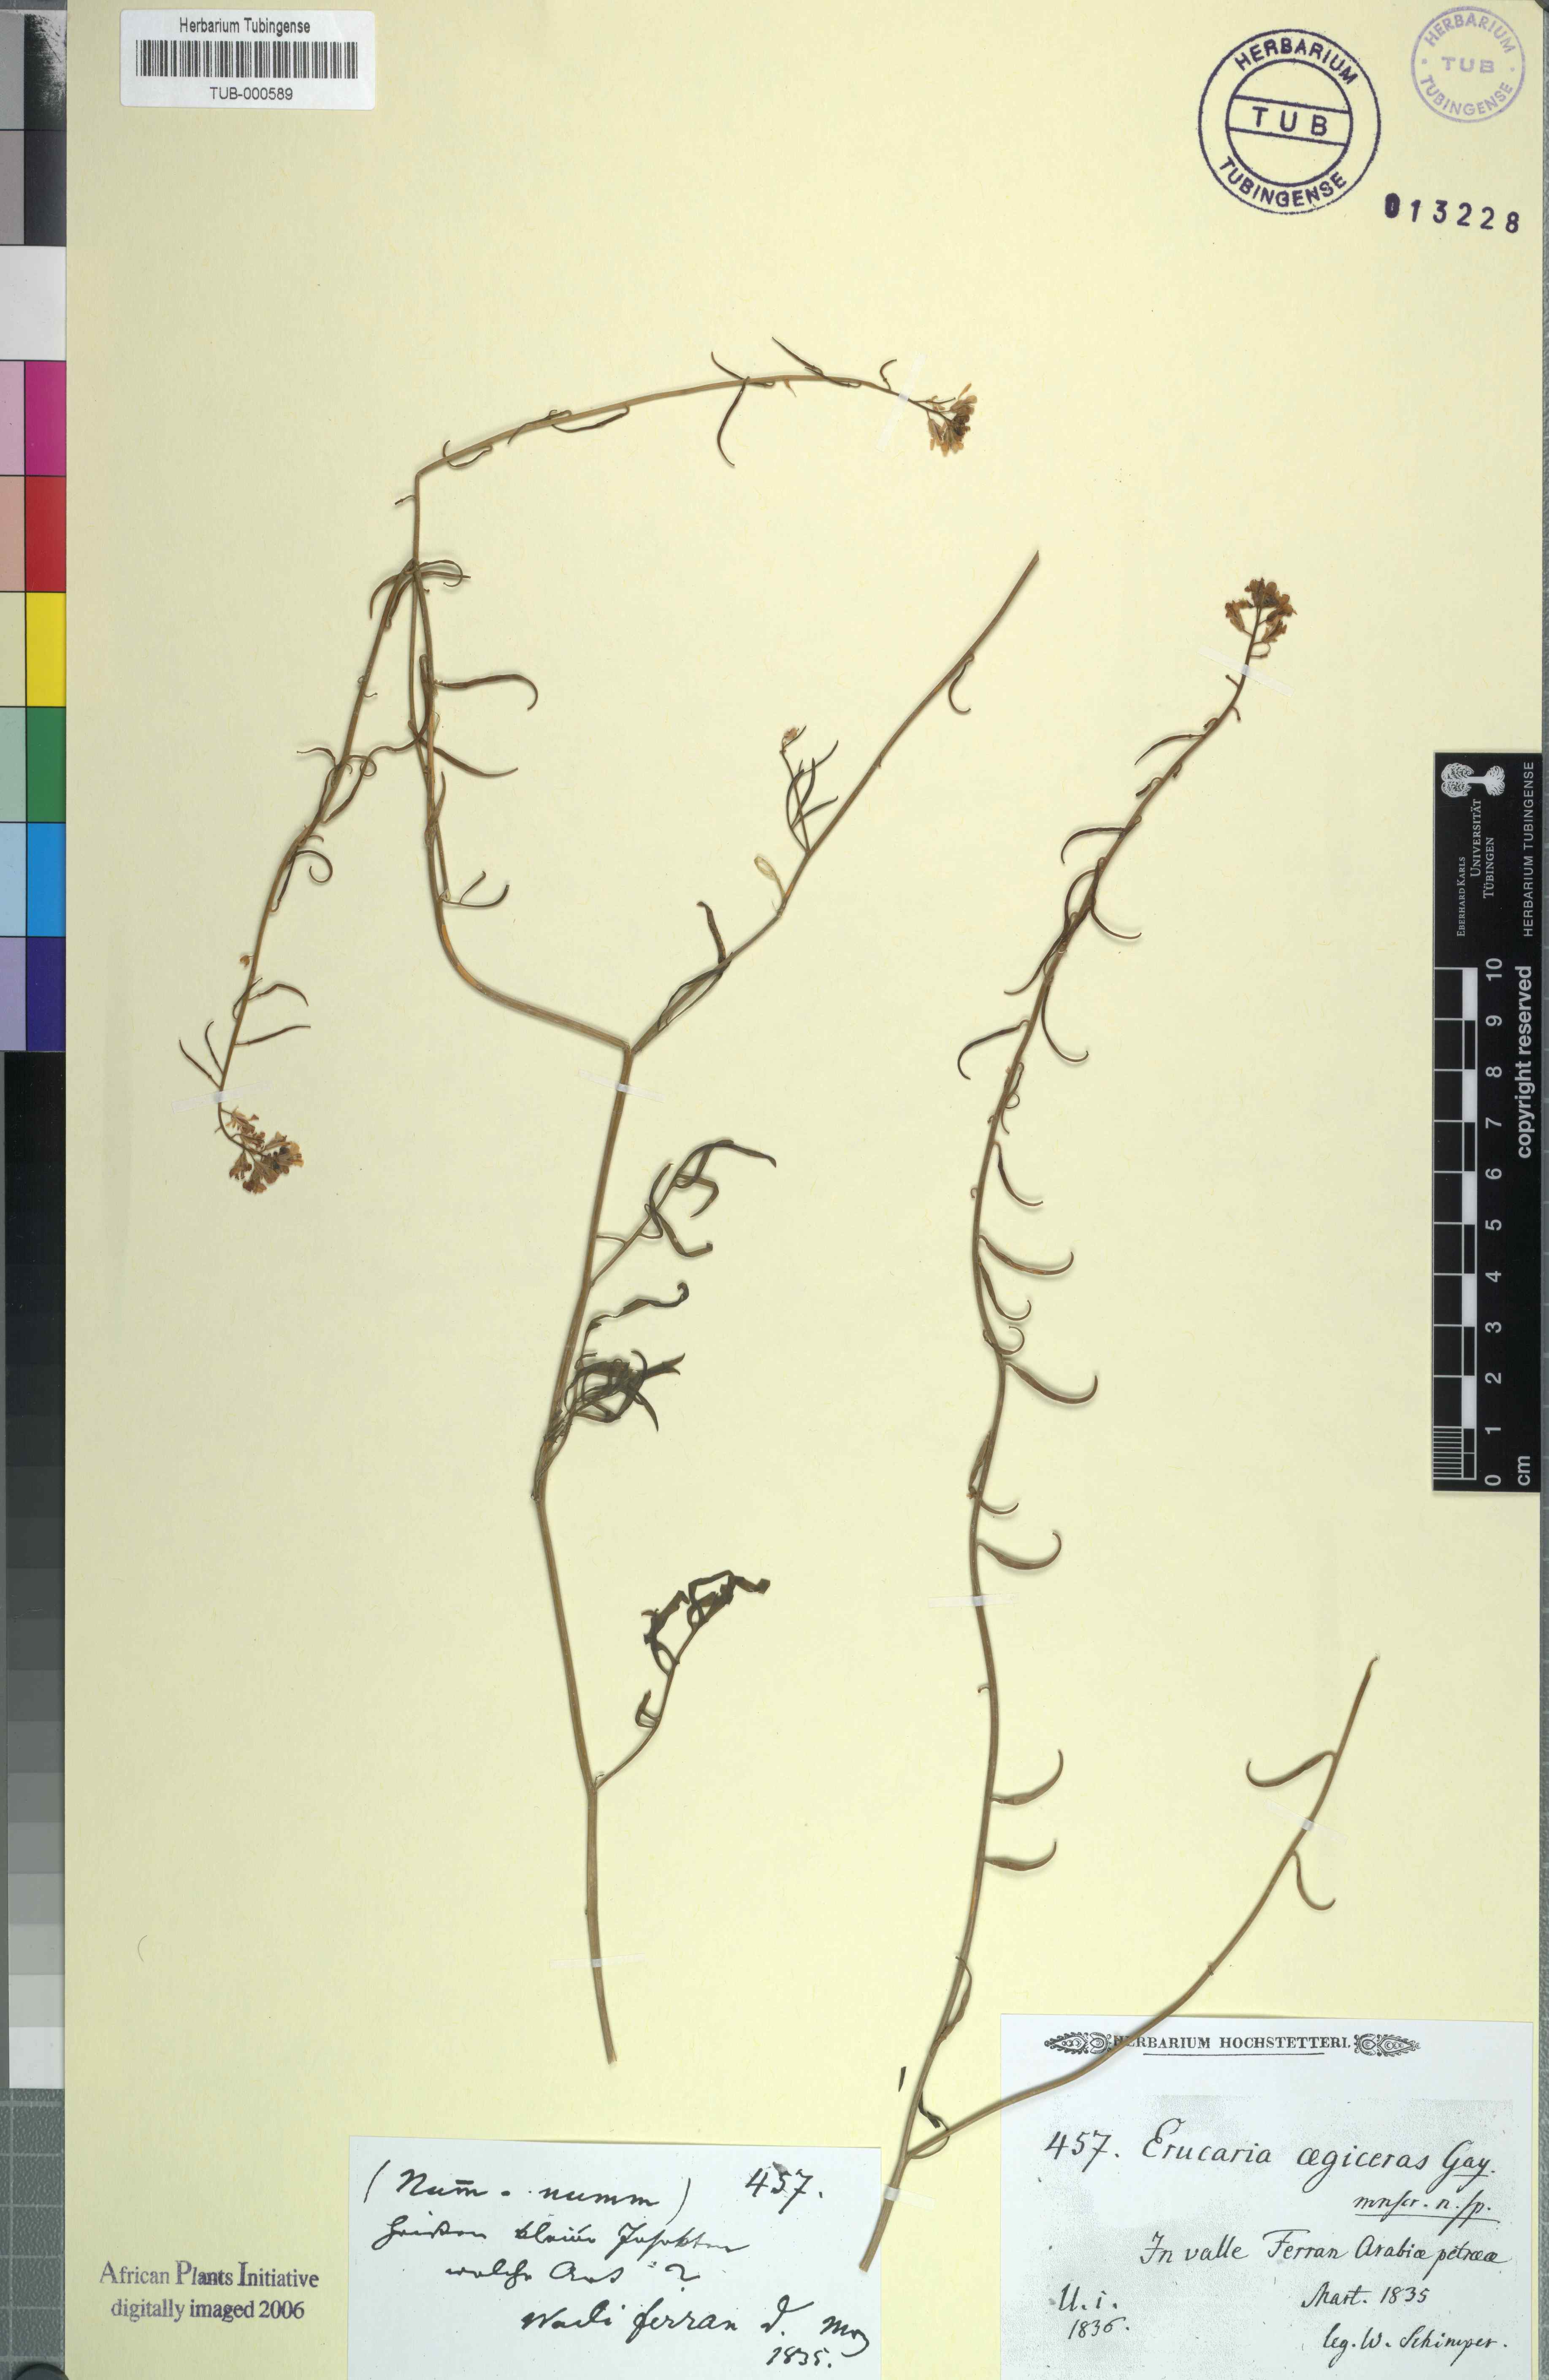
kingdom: Plantae
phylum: Tracheophyta
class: Magnoliopsida
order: Brassicales
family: Brassicaceae
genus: Erucaria
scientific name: Erucaria uncata
